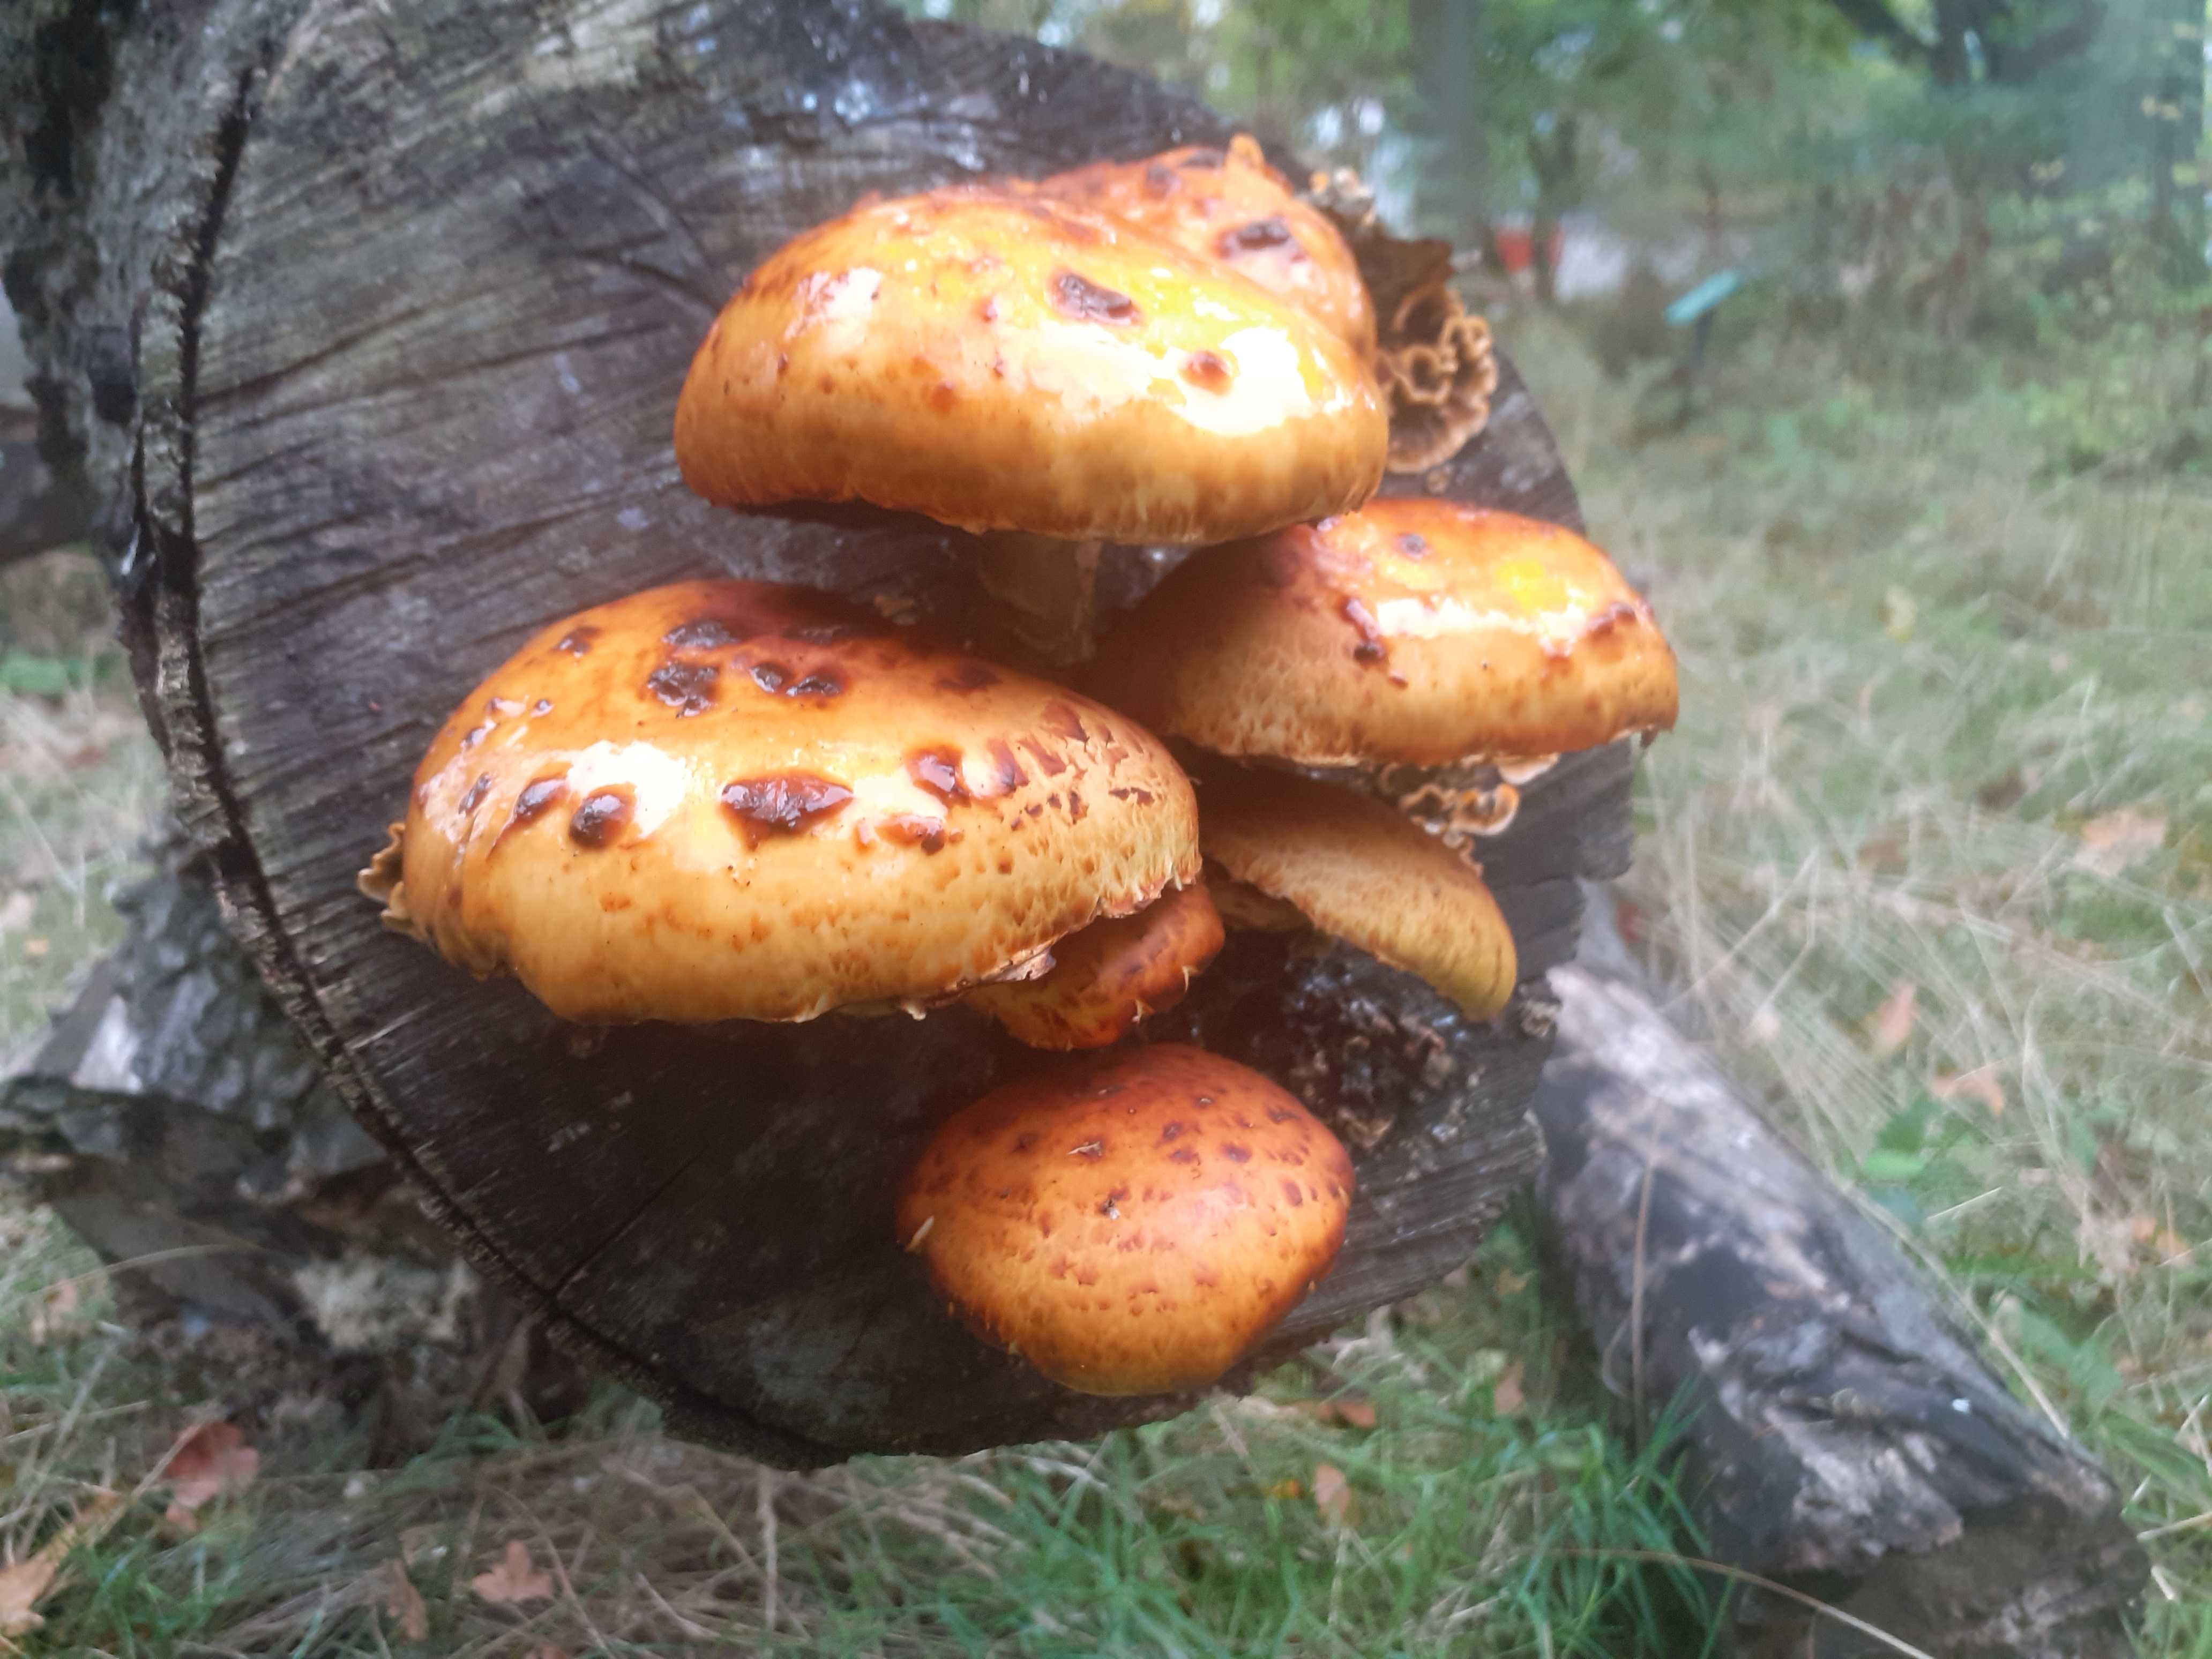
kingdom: Fungi
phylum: Basidiomycota
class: Agaricomycetes
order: Agaricales
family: Strophariaceae
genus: Pholiota
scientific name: Pholiota adiposa
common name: højtsiddende skælhat
